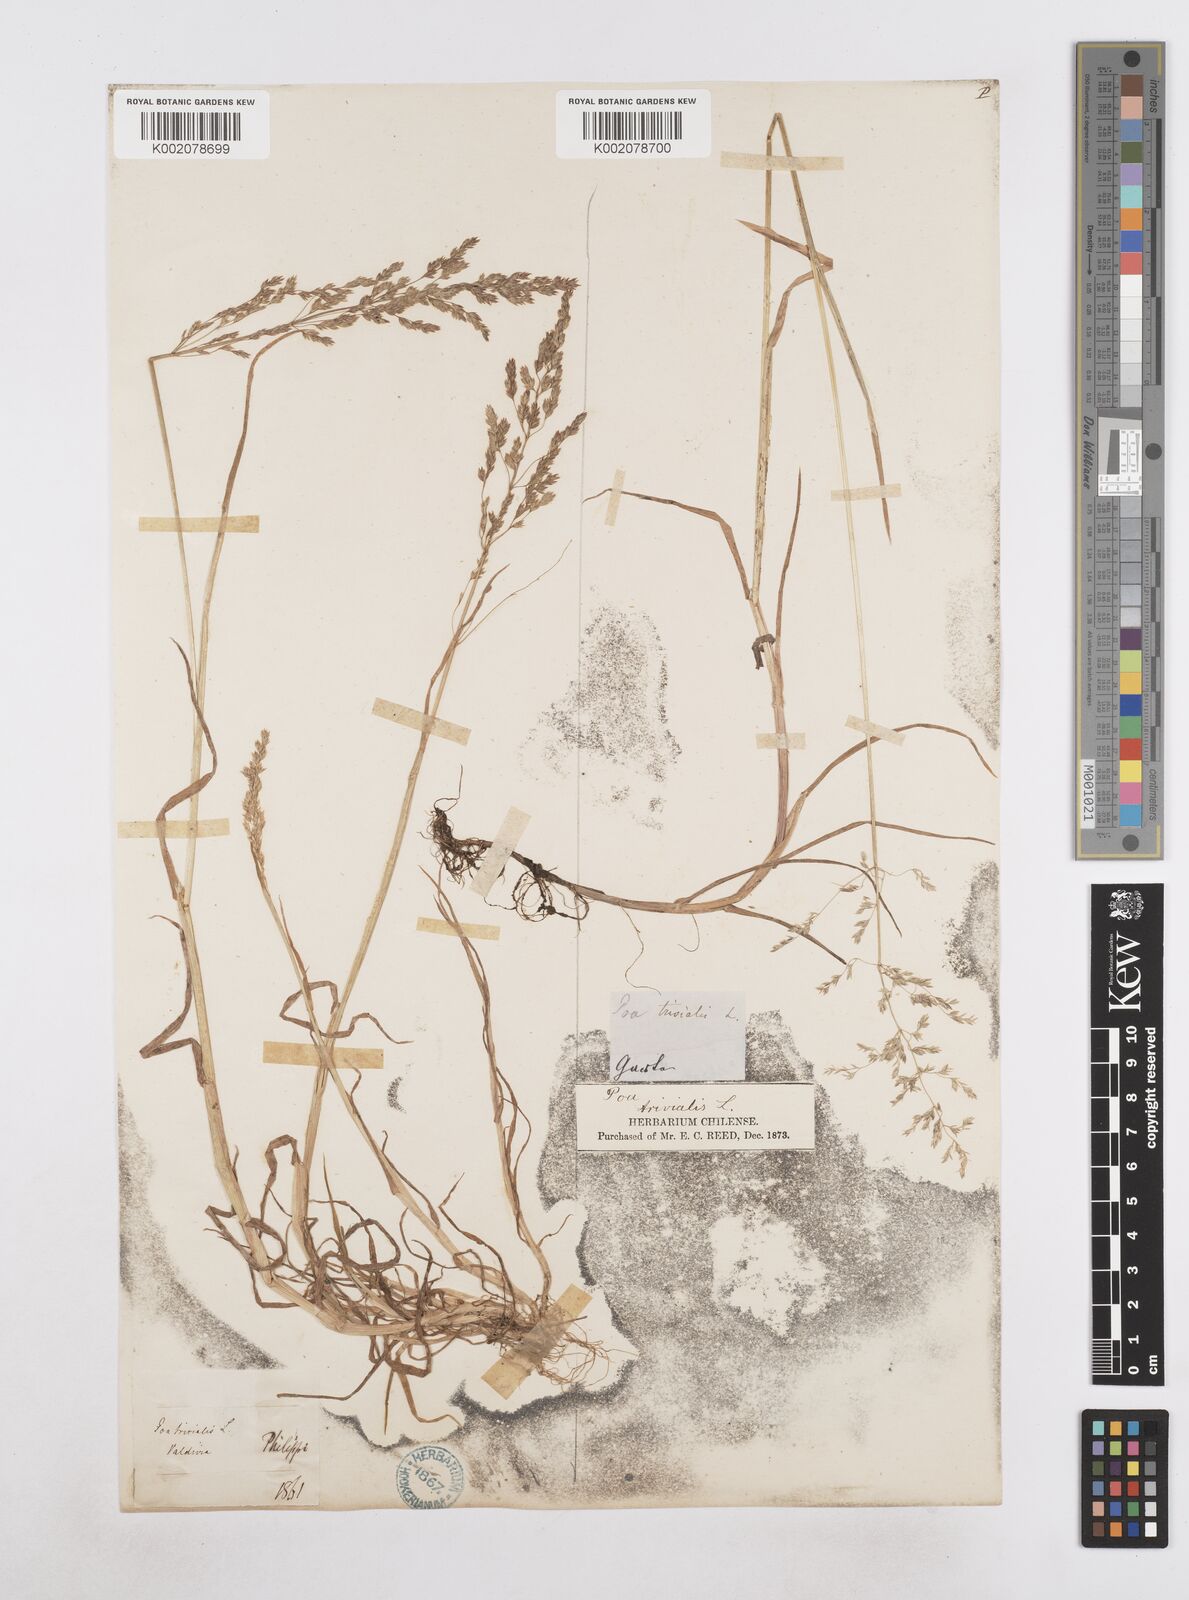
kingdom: Plantae
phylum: Tracheophyta
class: Liliopsida
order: Poales
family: Poaceae
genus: Poa
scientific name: Poa trivialis
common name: Rough bluegrass
